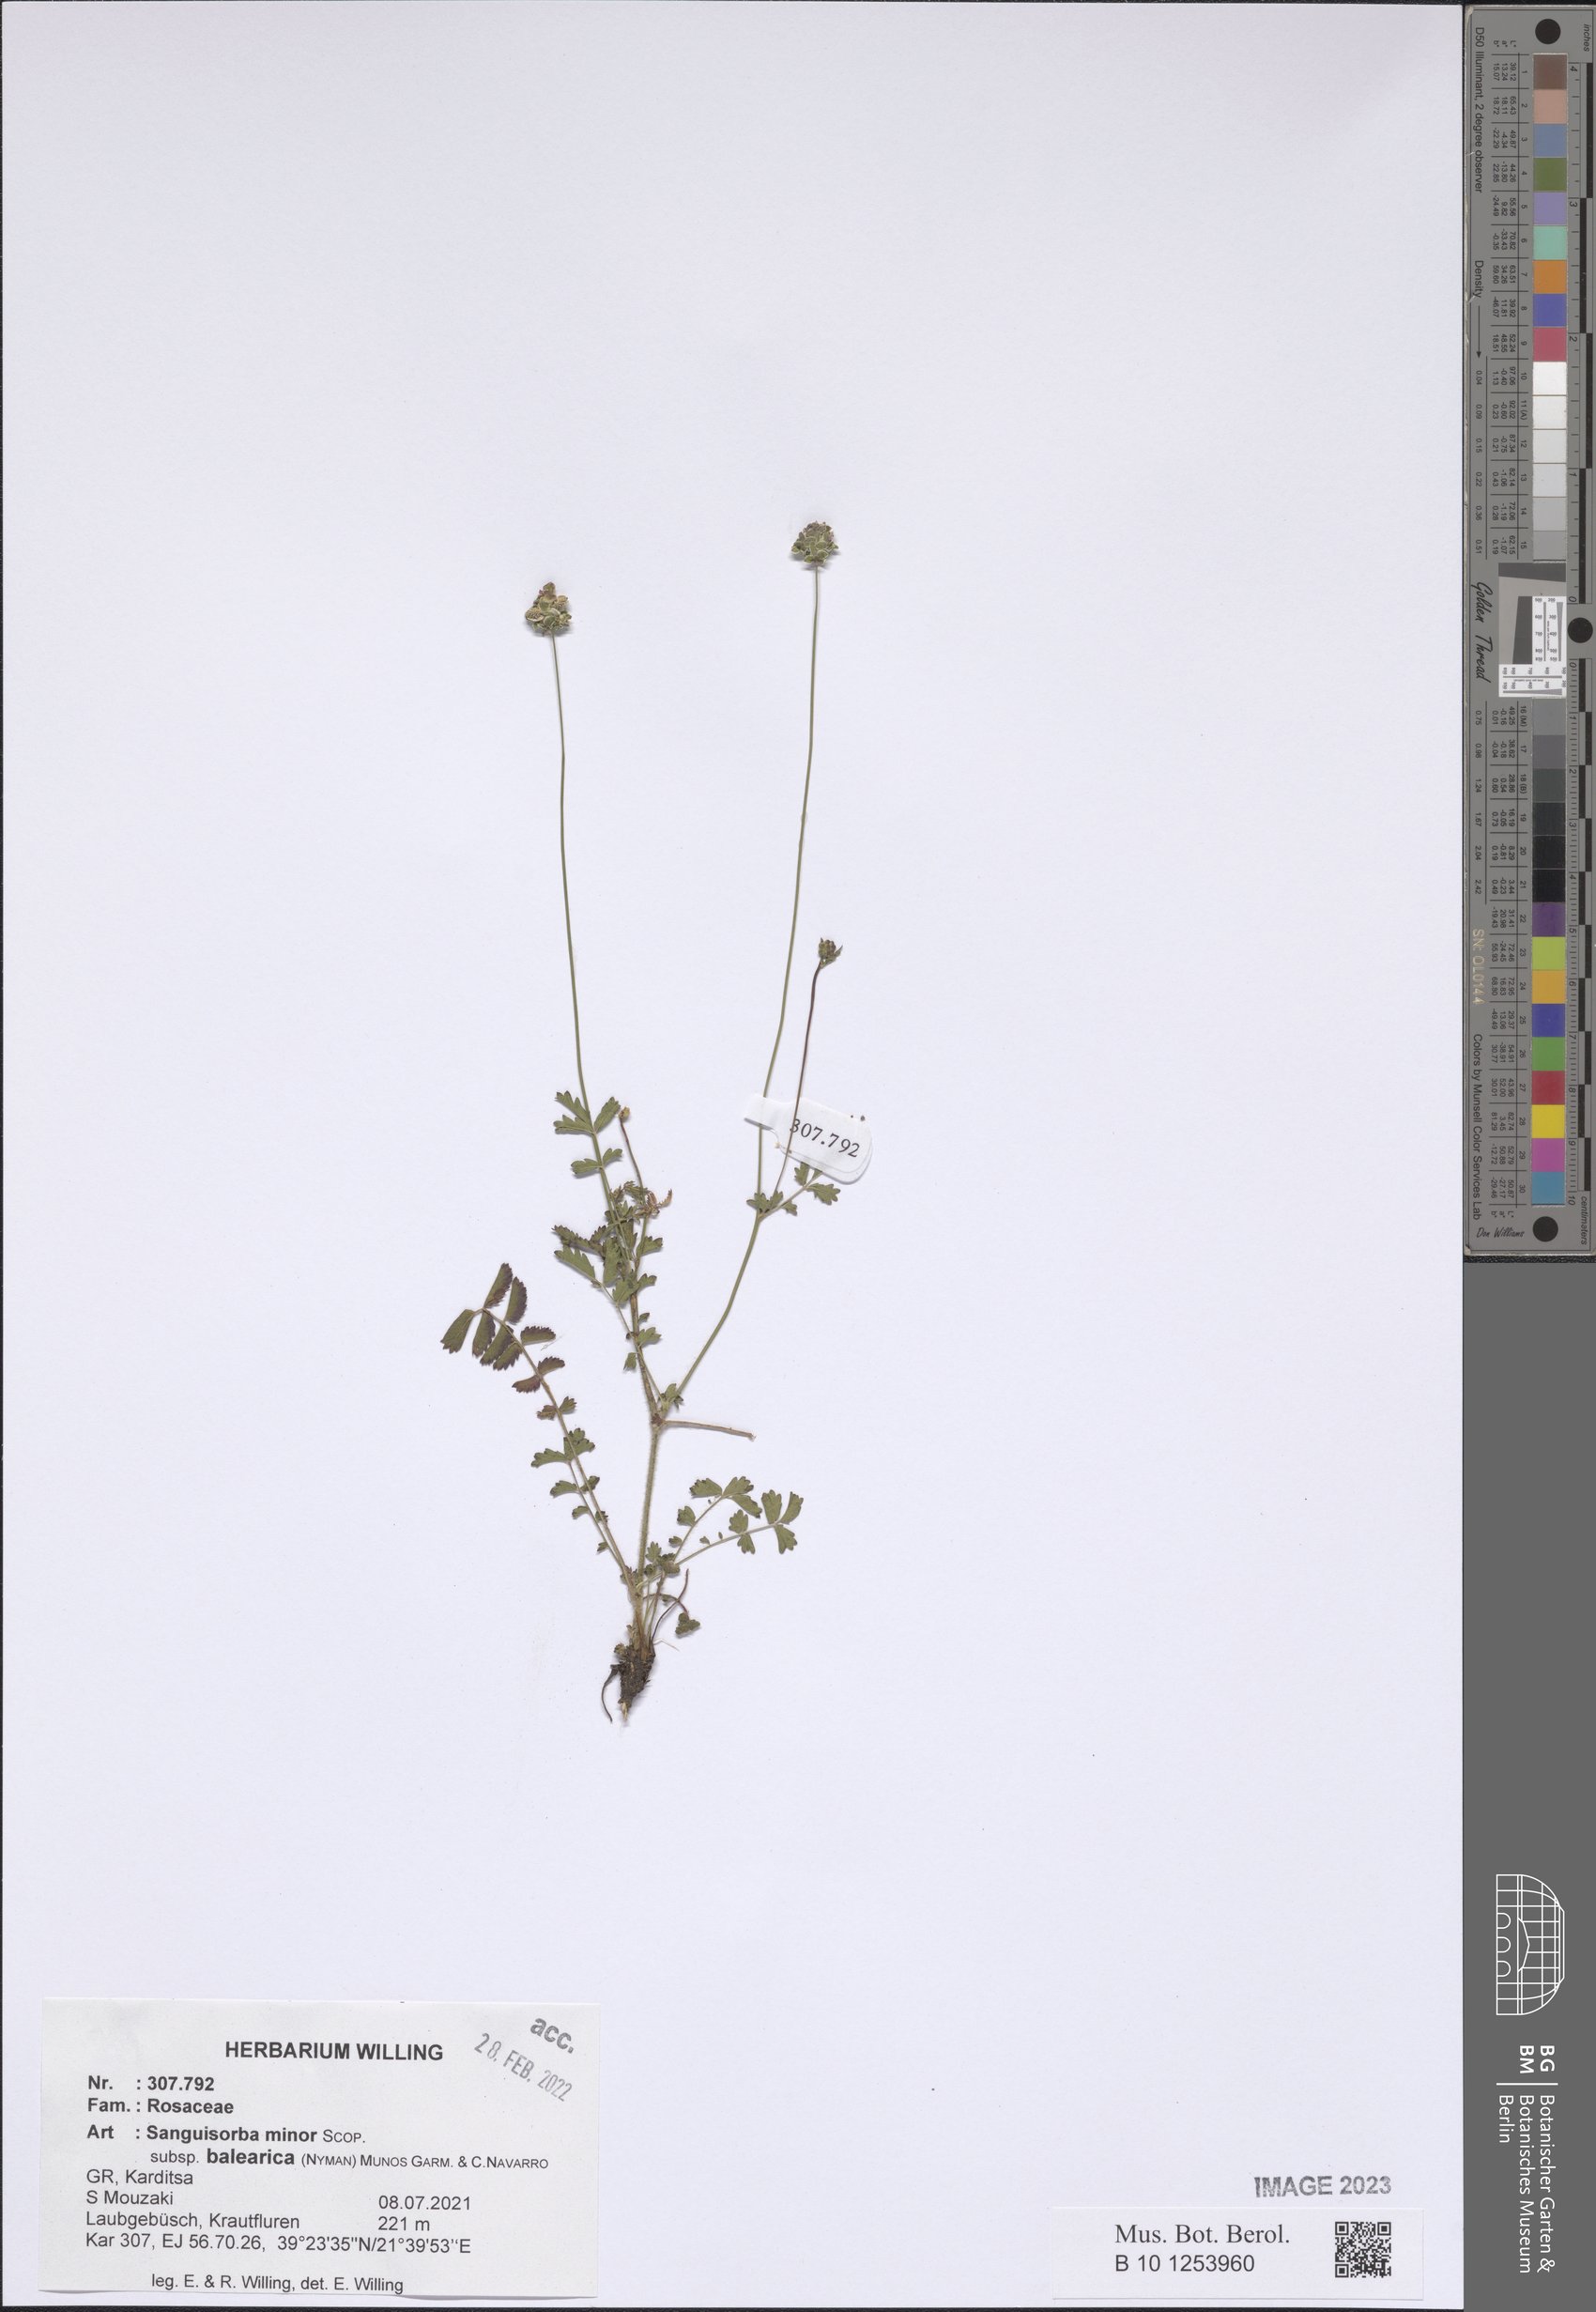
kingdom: Plantae
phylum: Tracheophyta
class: Magnoliopsida
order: Rosales
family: Rosaceae
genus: Poterium
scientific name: Poterium sanguisorba
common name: Salad burnet
